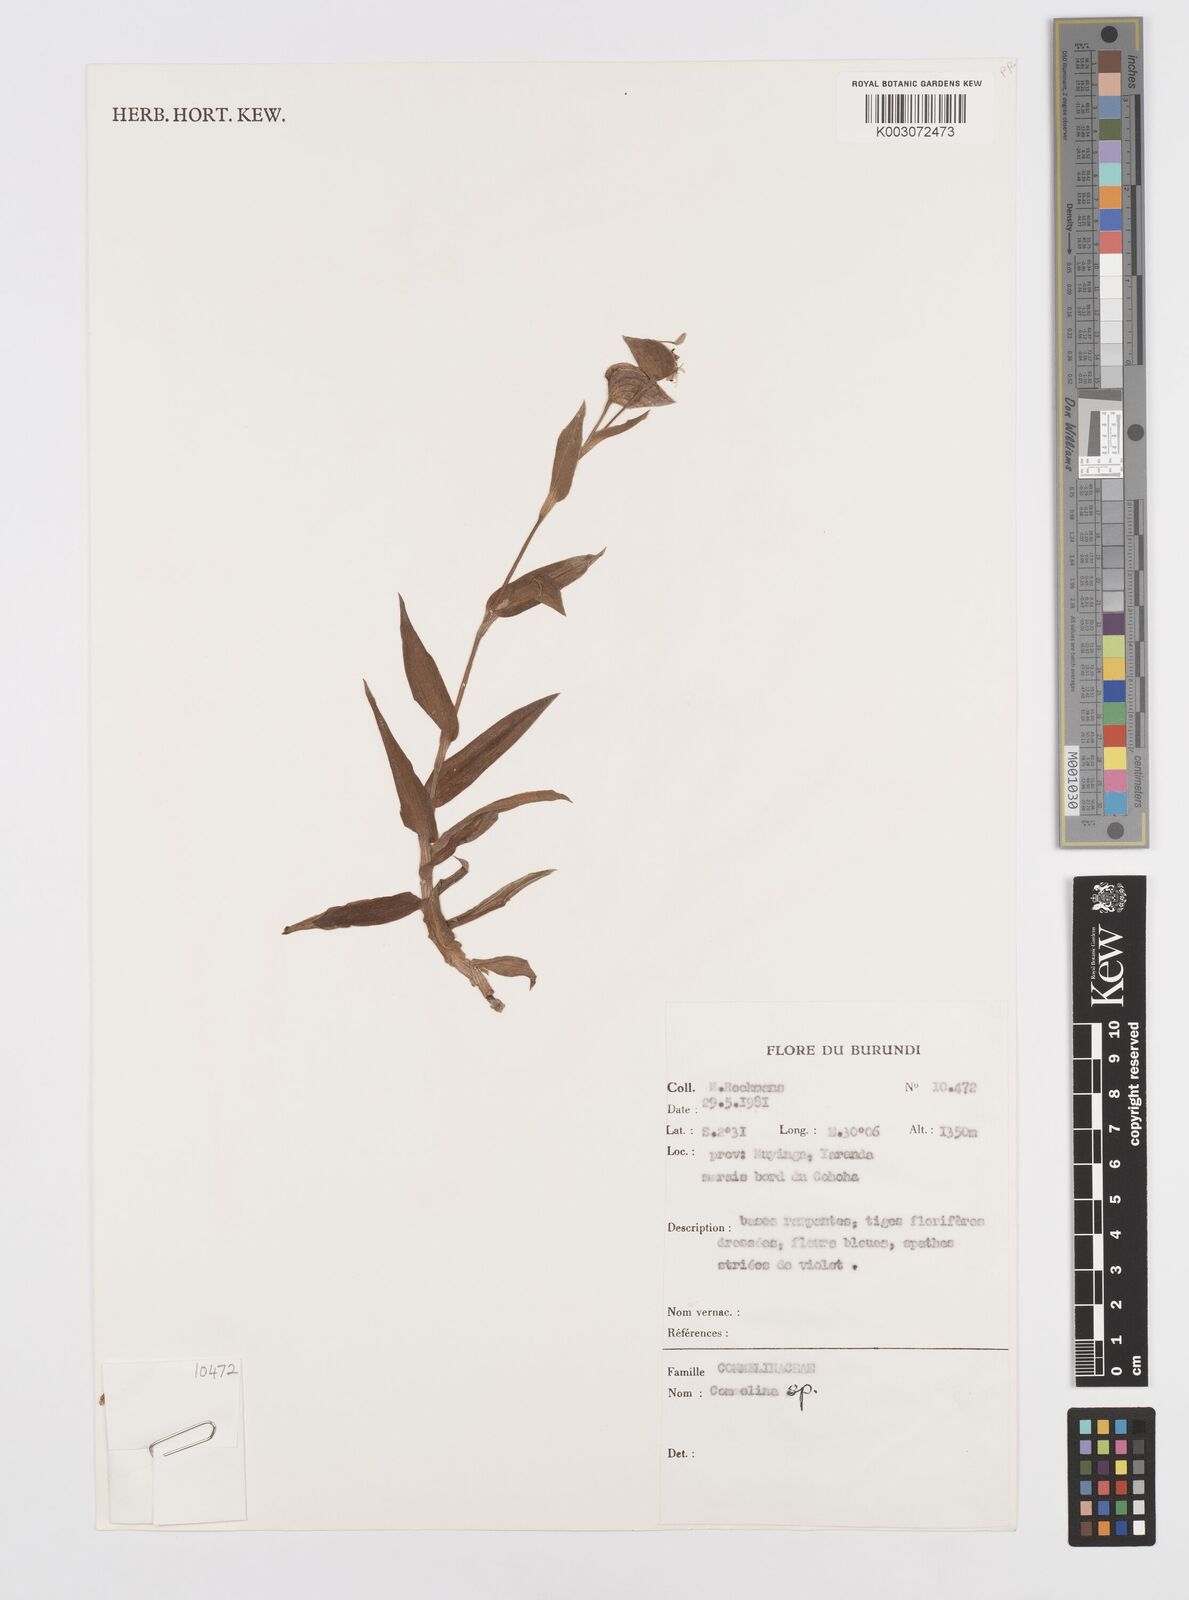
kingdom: Plantae
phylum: Tracheophyta
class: Liliopsida
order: Commelinales
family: Commelinaceae
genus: Commelina
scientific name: Commelina
